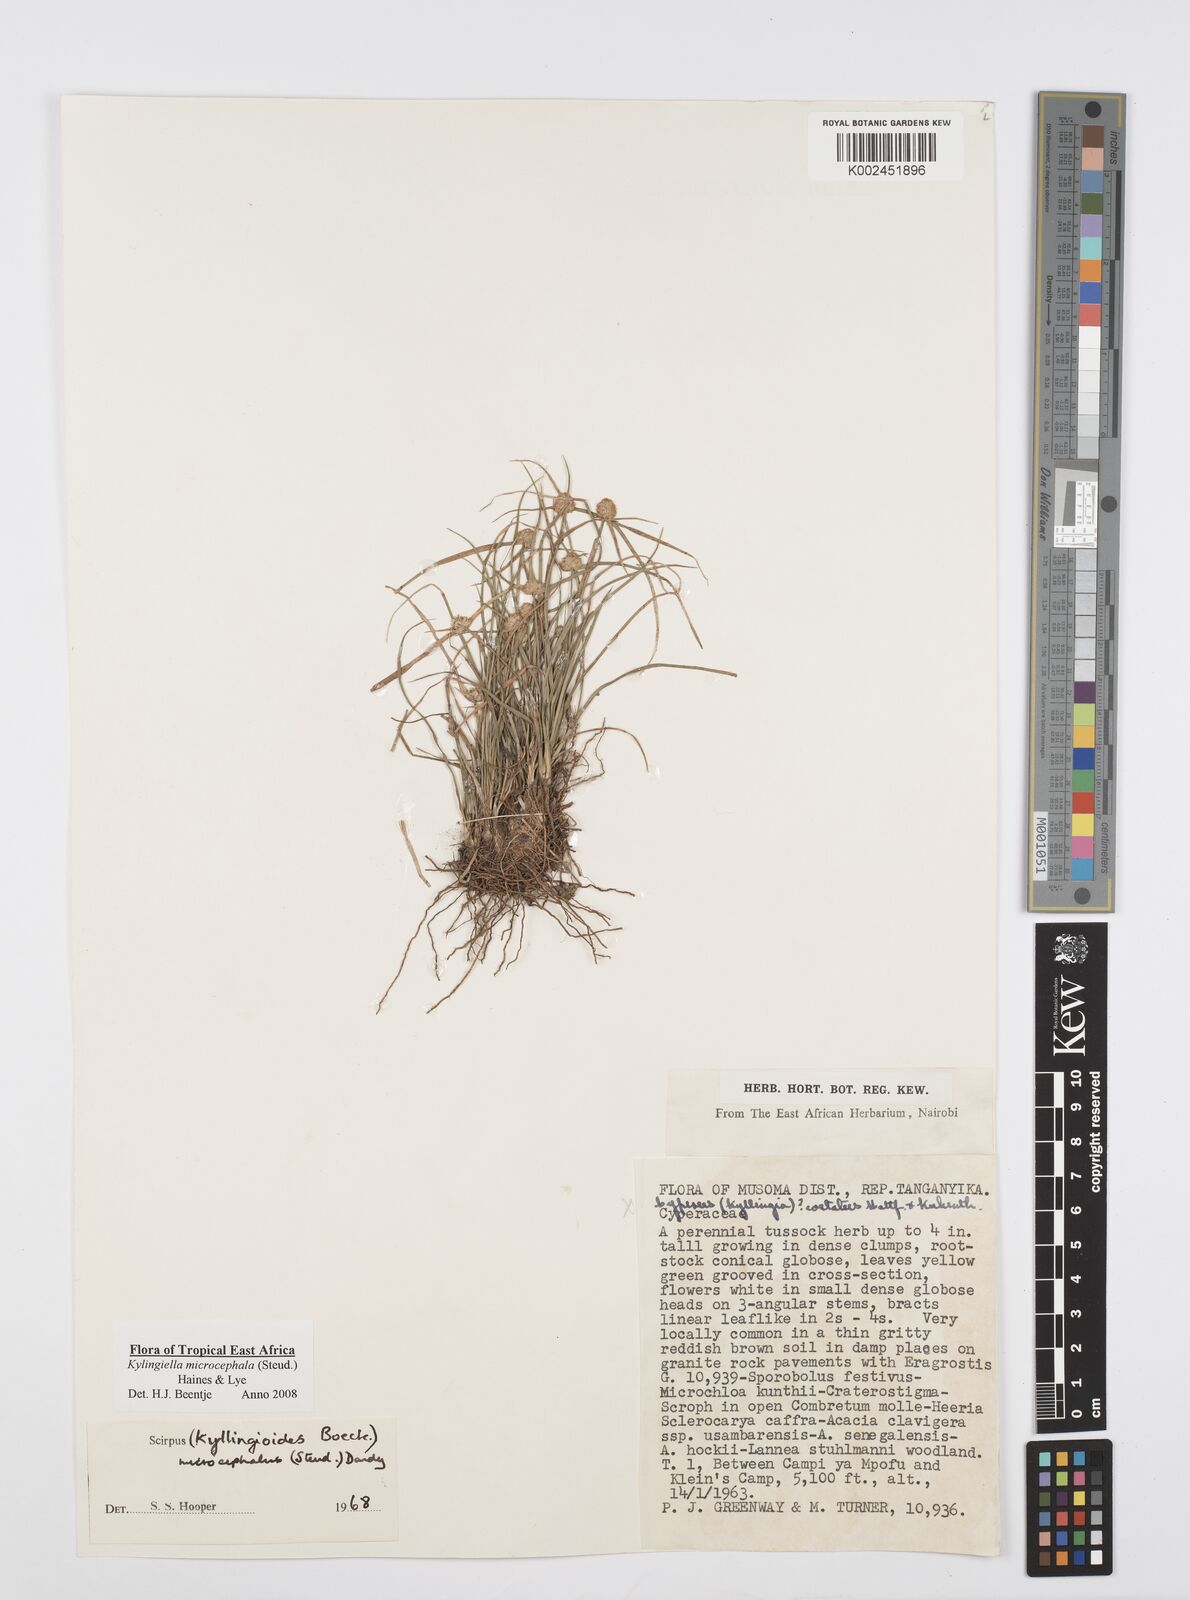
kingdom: Plantae
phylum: Tracheophyta
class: Liliopsida
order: Poales
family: Cyperaceae
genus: Cyperus
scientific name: Cyperus microcephalus
